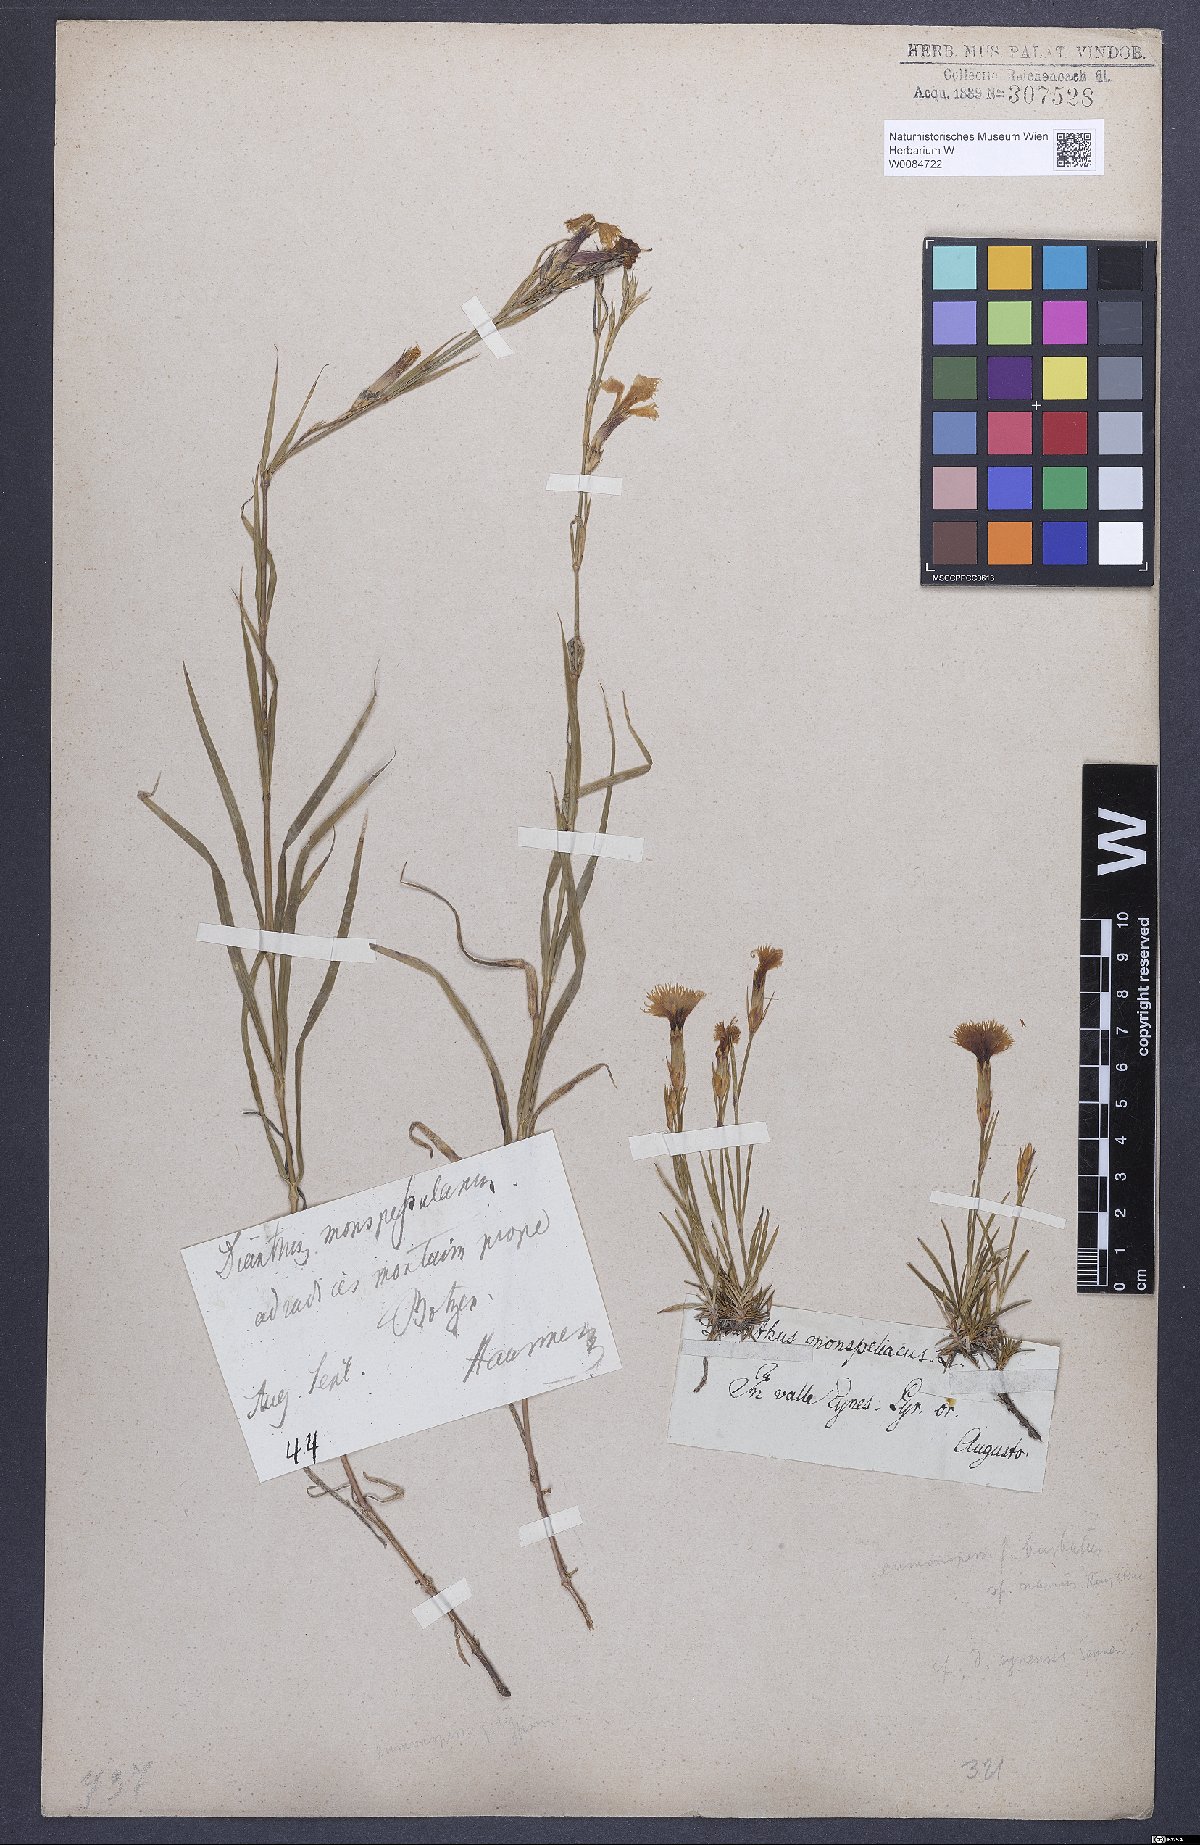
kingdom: Plantae
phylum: Tracheophyta
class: Magnoliopsida
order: Caryophyllales
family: Caryophyllaceae
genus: Dianthus
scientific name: Dianthus hyssopifolius
